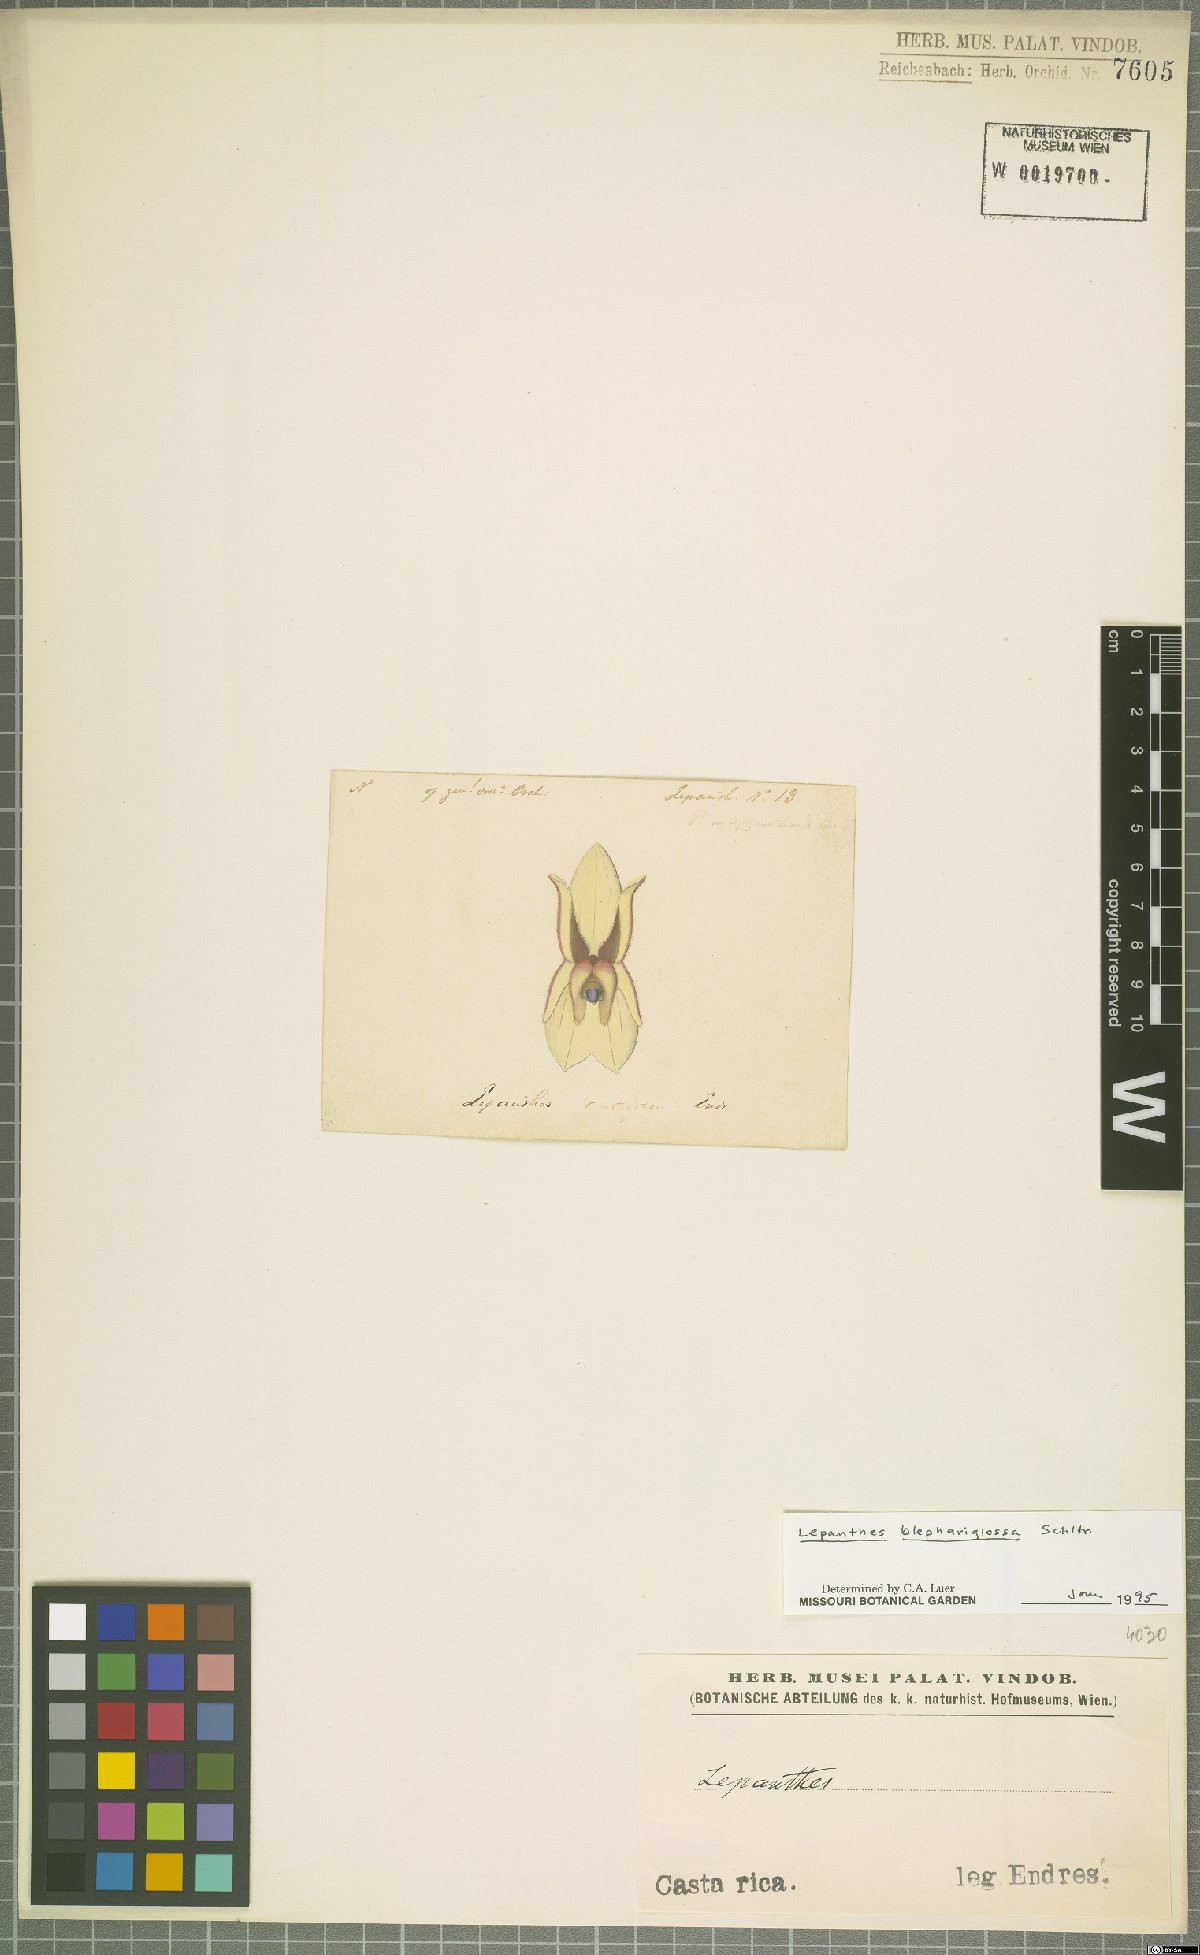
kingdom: Plantae
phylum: Tracheophyta
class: Liliopsida
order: Asparagales
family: Orchidaceae
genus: Lepanthes
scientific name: Lepanthes blephariglossa
